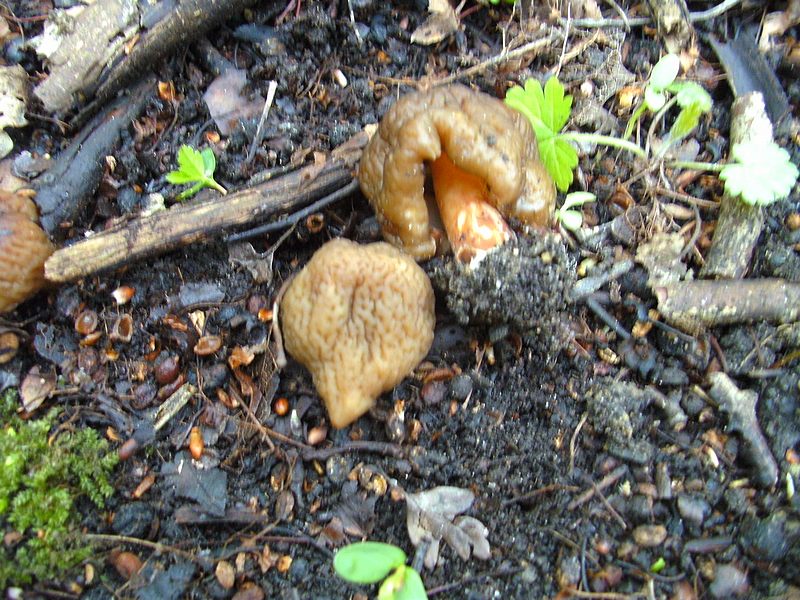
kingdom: Fungi
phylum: Ascomycota
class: Pezizomycetes
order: Pezizales
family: Morchellaceae
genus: Verpa
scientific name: Verpa conica
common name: glat klokkemorkel
